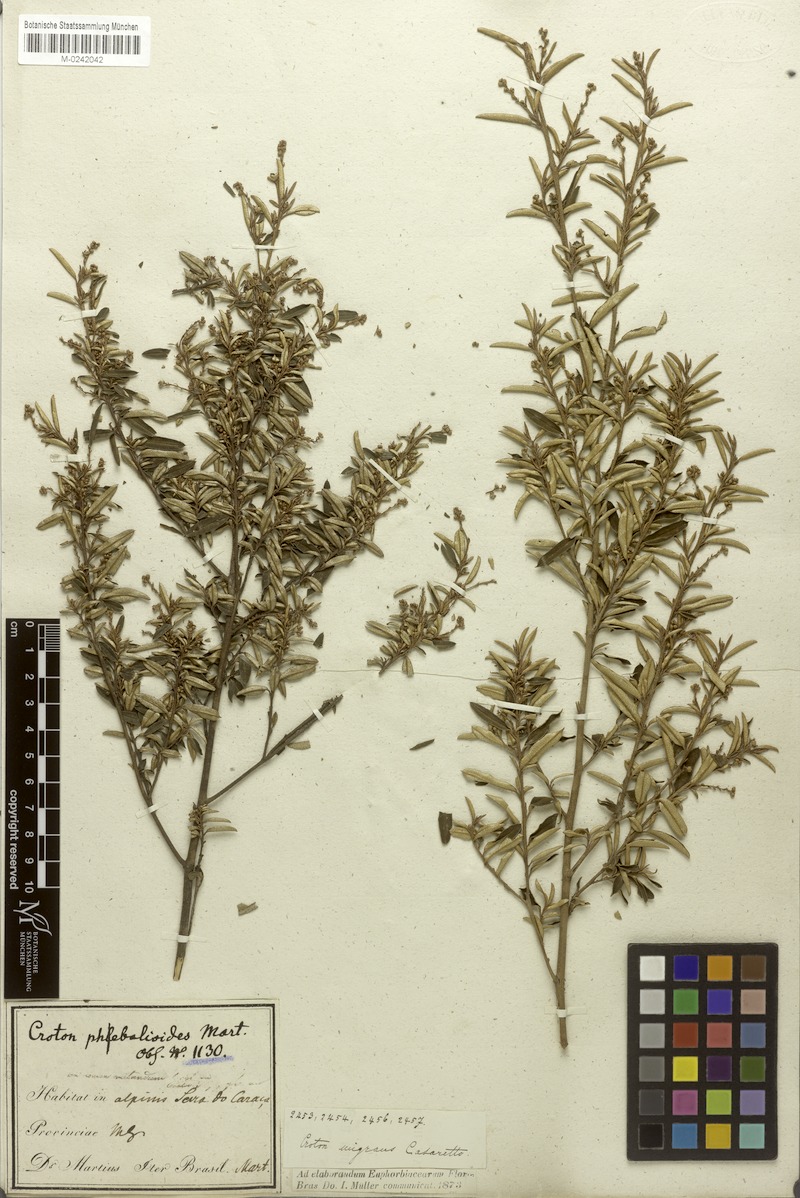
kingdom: Plantae
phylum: Tracheophyta
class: Magnoliopsida
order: Malpighiales
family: Euphorbiaceae
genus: Croton
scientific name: Croton splendidus
